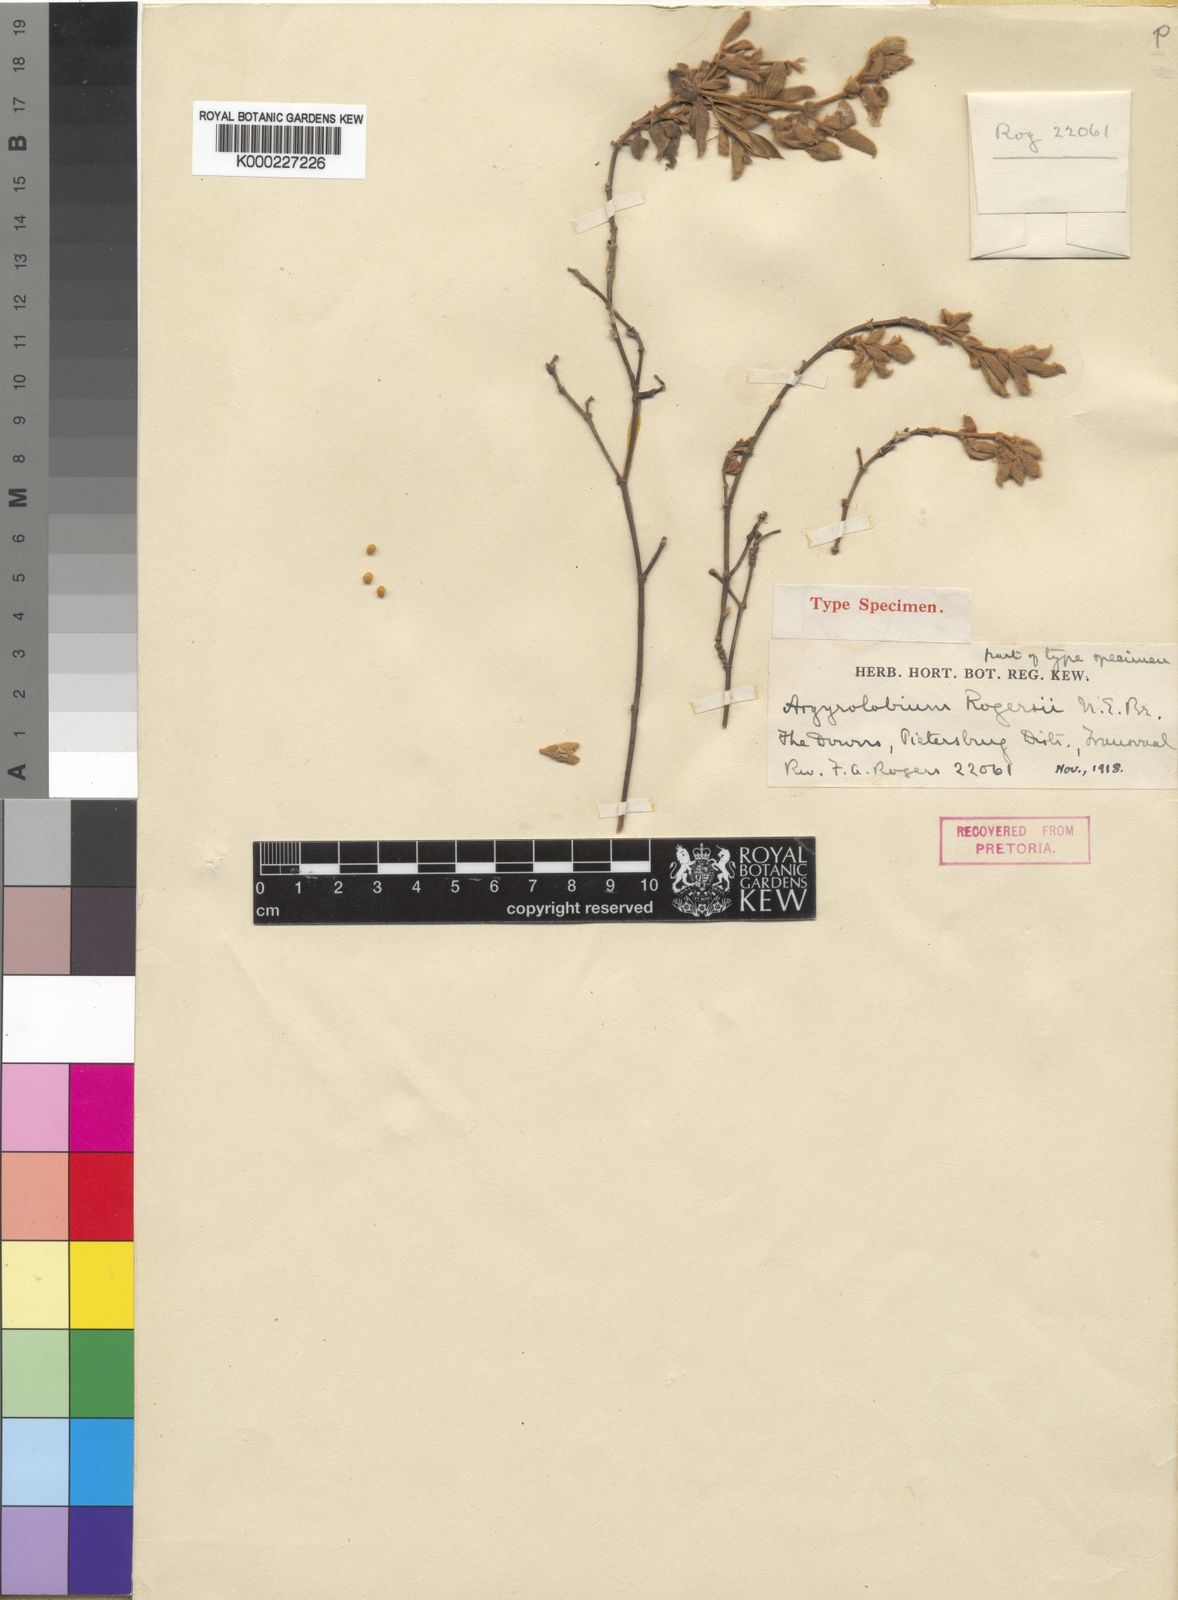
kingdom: Plantae
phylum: Tracheophyta
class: Magnoliopsida
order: Fabales
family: Fabaceae
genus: Argyrolobium
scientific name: Argyrolobium rupestre
